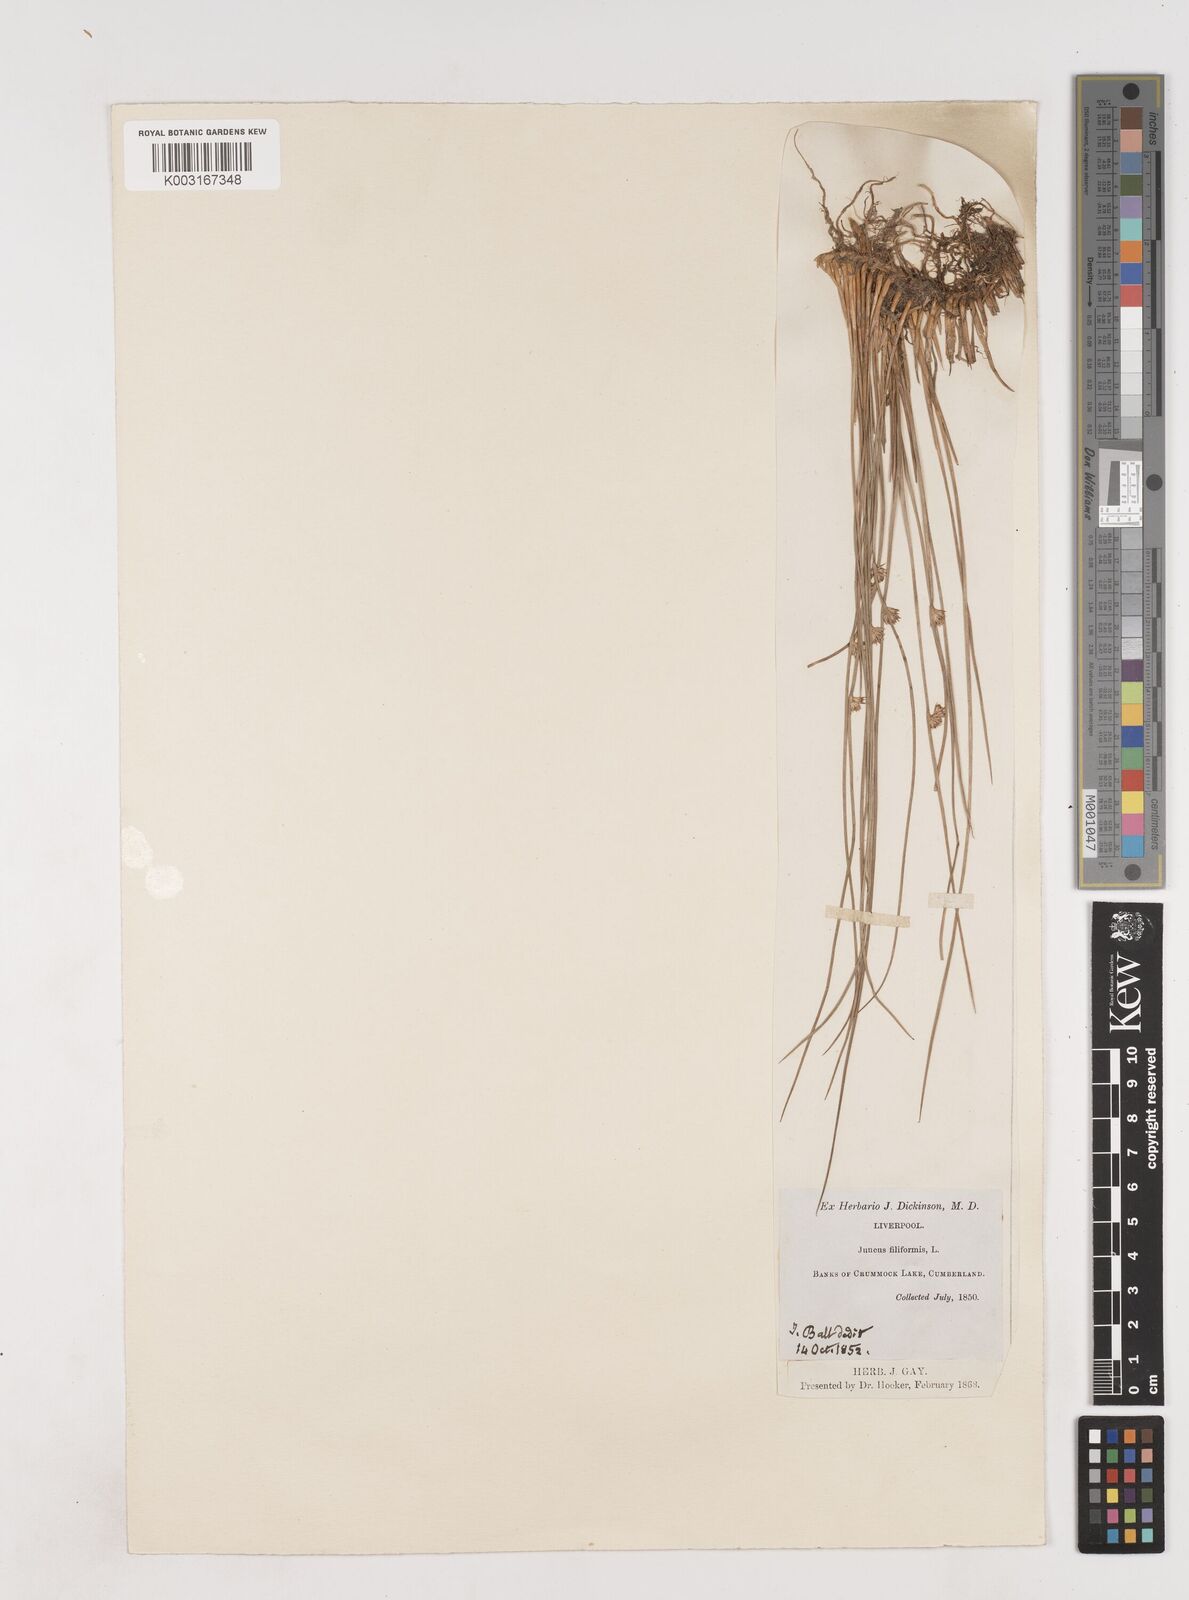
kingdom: Plantae
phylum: Tracheophyta
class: Liliopsida
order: Poales
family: Juncaceae
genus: Juncus
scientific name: Juncus filiformis
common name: Thread rush
